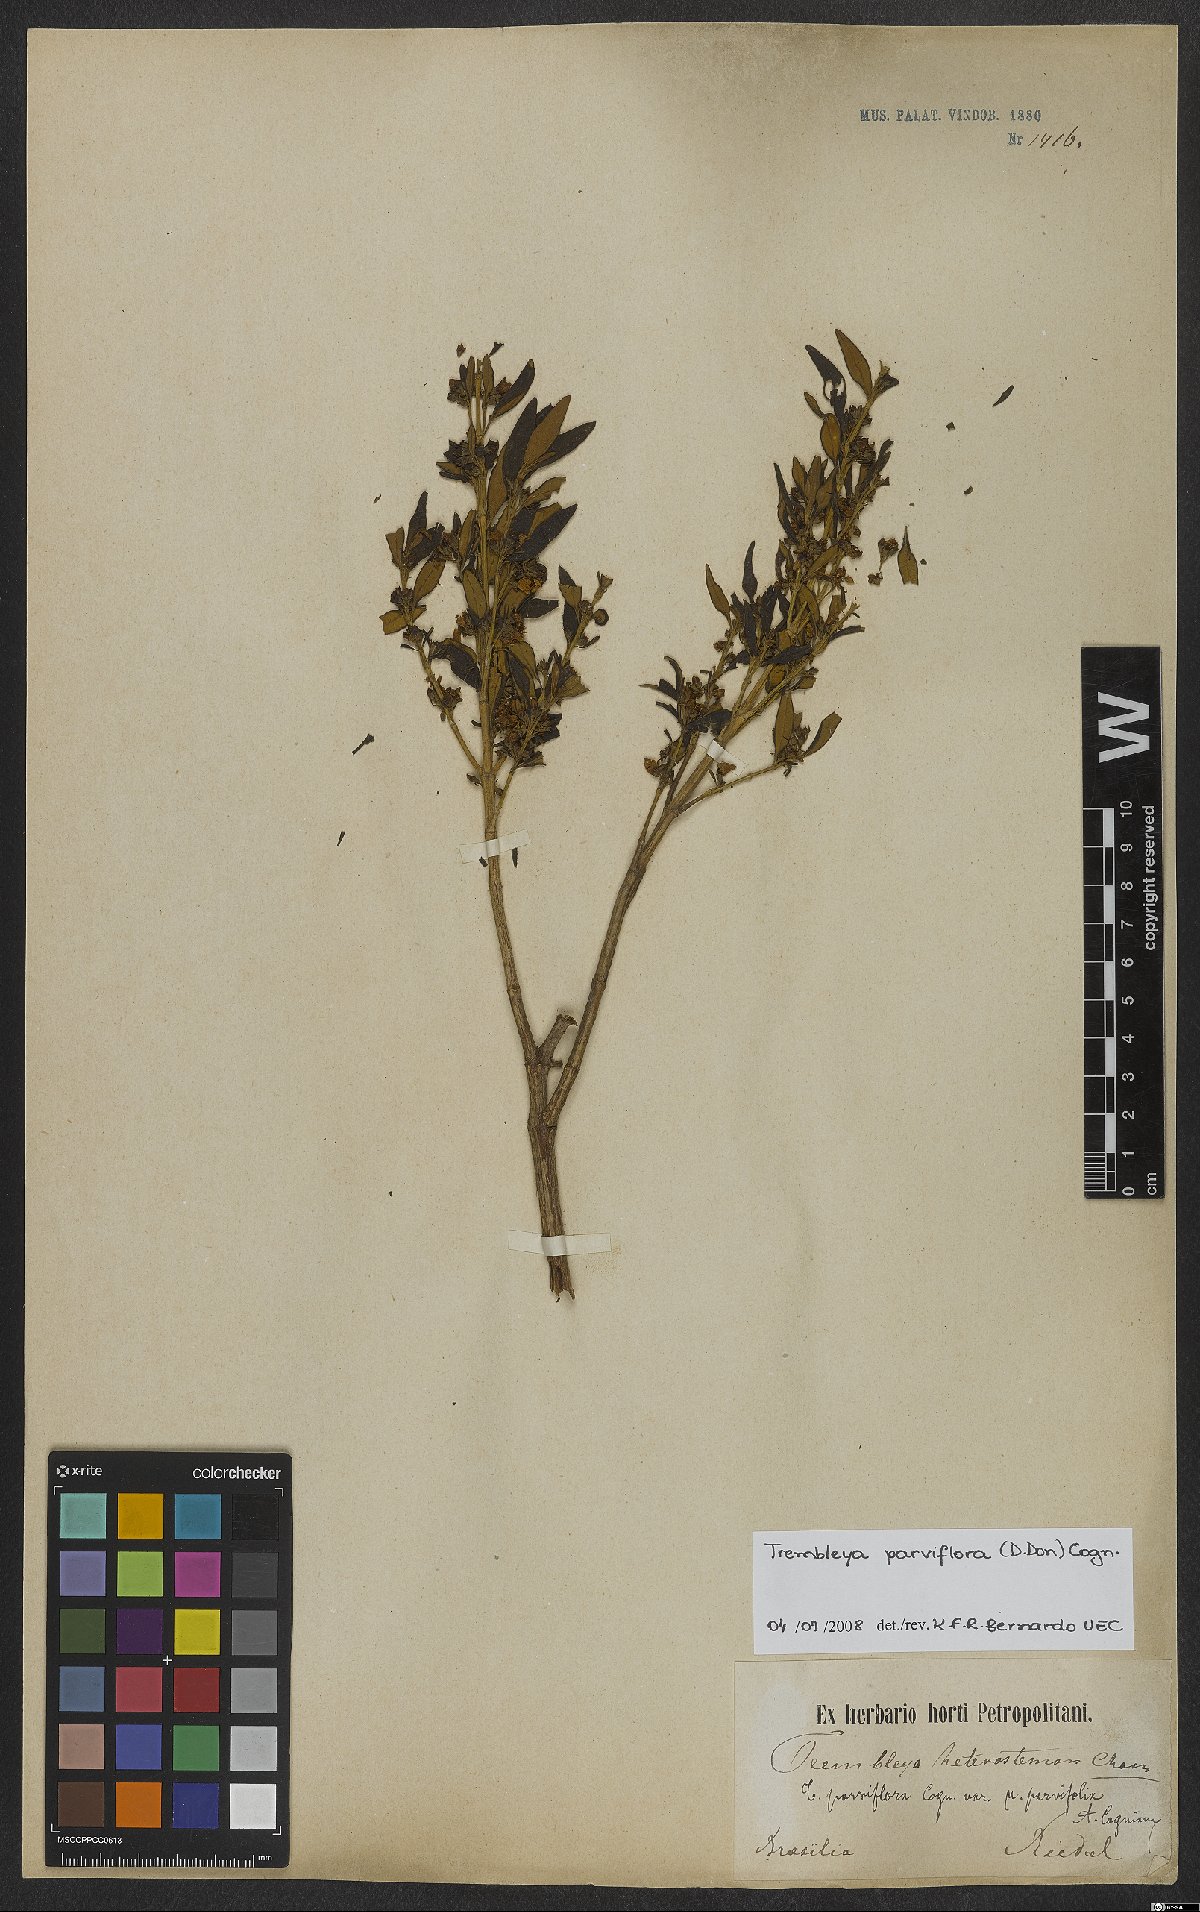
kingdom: Plantae
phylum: Tracheophyta
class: Magnoliopsida
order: Myrtales
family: Melastomataceae
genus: Microlicia
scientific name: Microlicia parviflora
